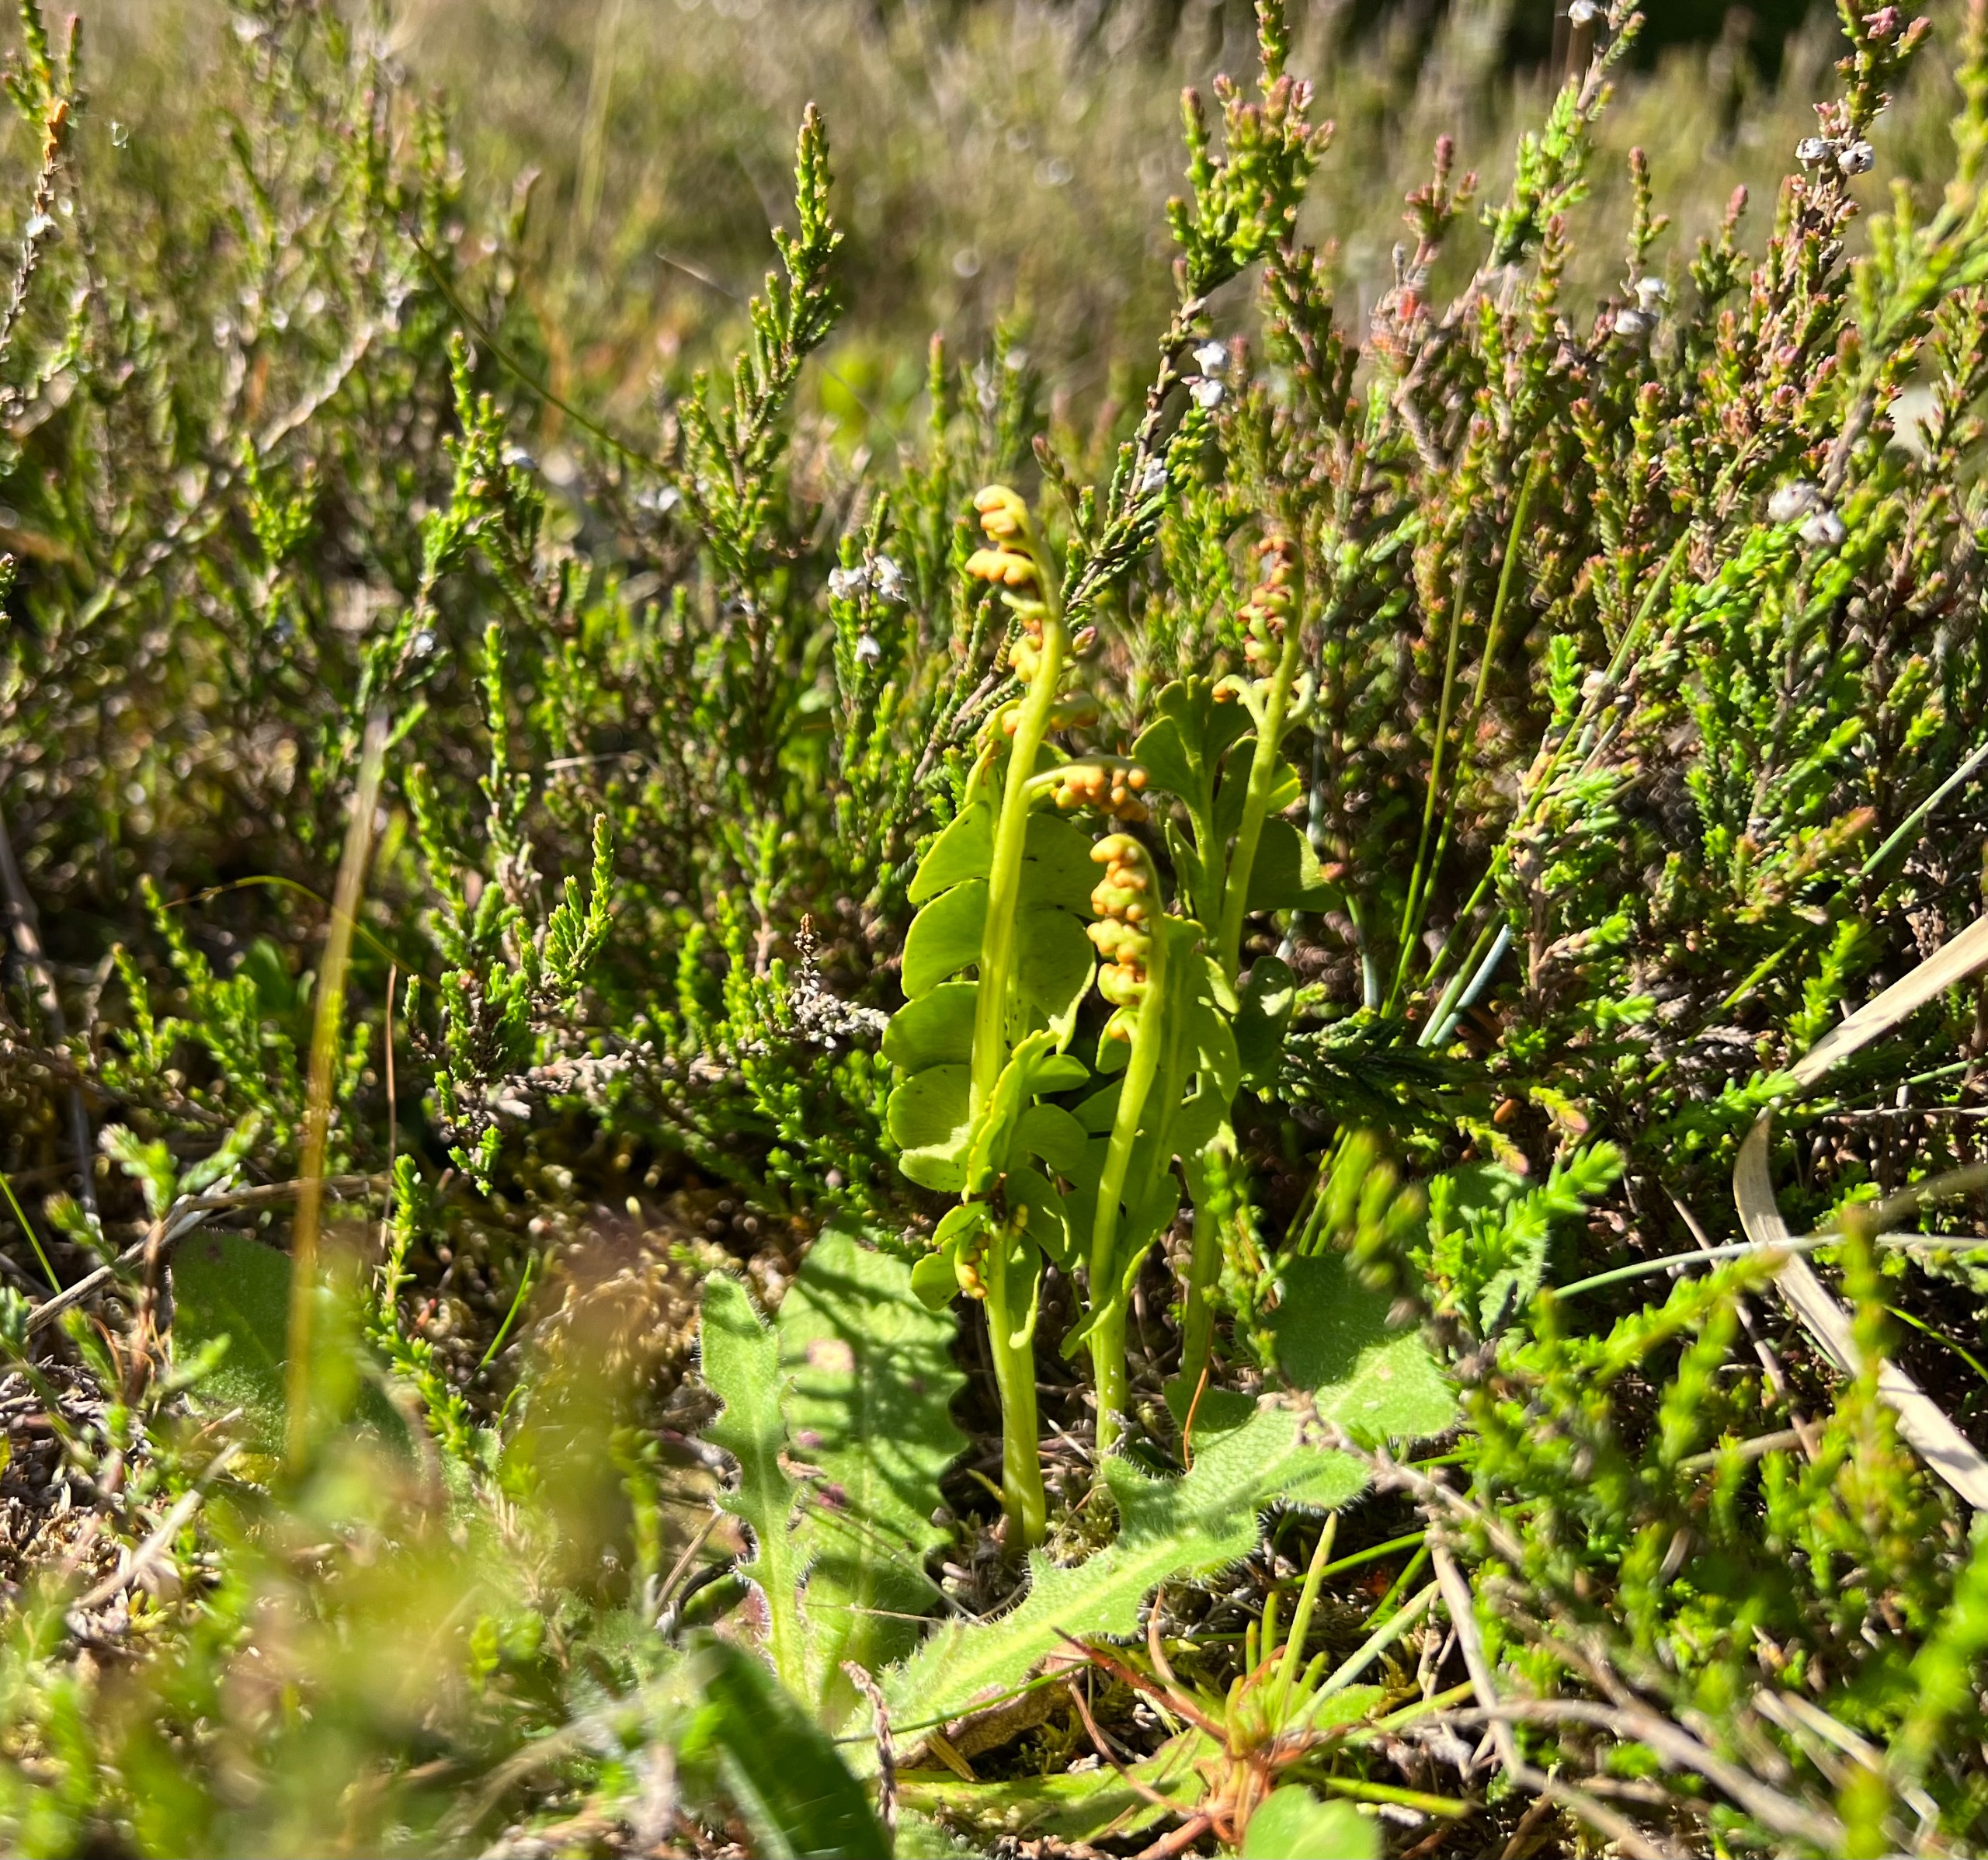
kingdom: Plantae
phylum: Tracheophyta
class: Polypodiopsida
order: Ophioglossales
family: Ophioglossaceae
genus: Botrychium
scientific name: Botrychium lunaria
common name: Almindelig månerude
